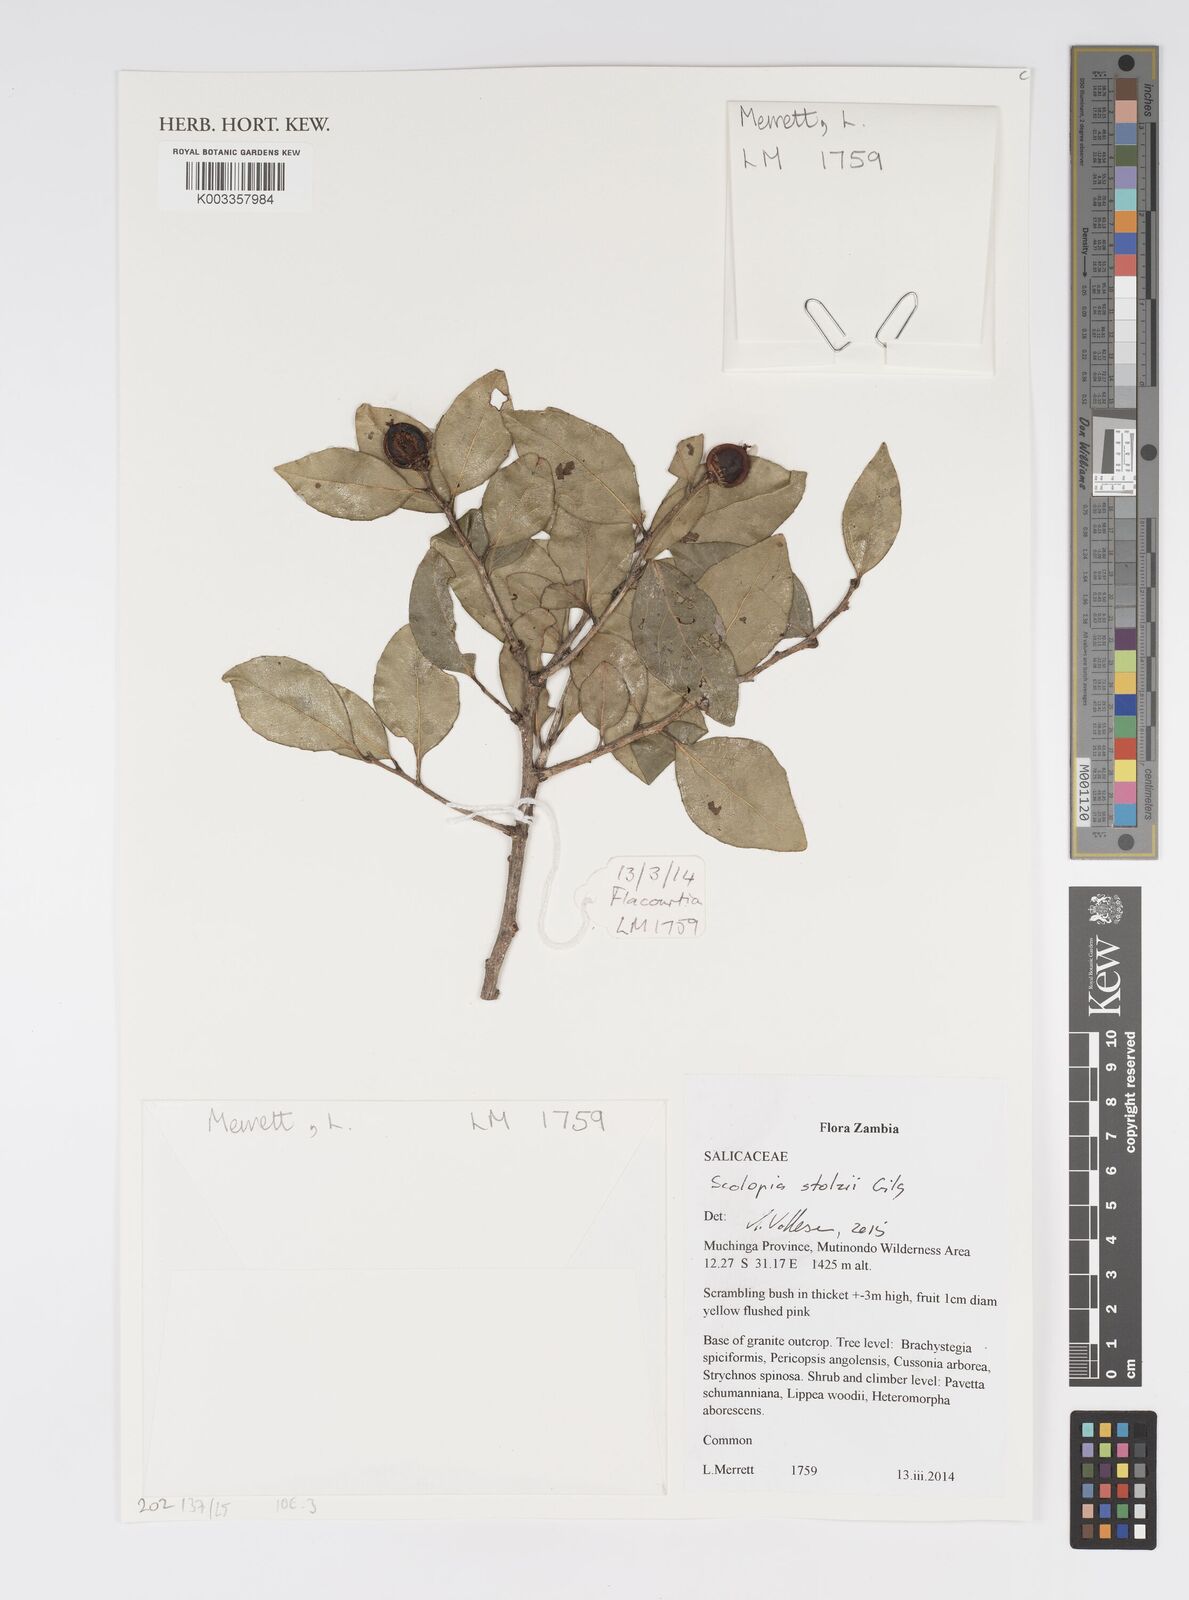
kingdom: Plantae
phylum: Tracheophyta
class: Magnoliopsida
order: Malpighiales
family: Salicaceae
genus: Scolopia
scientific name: Scolopia stolzii
